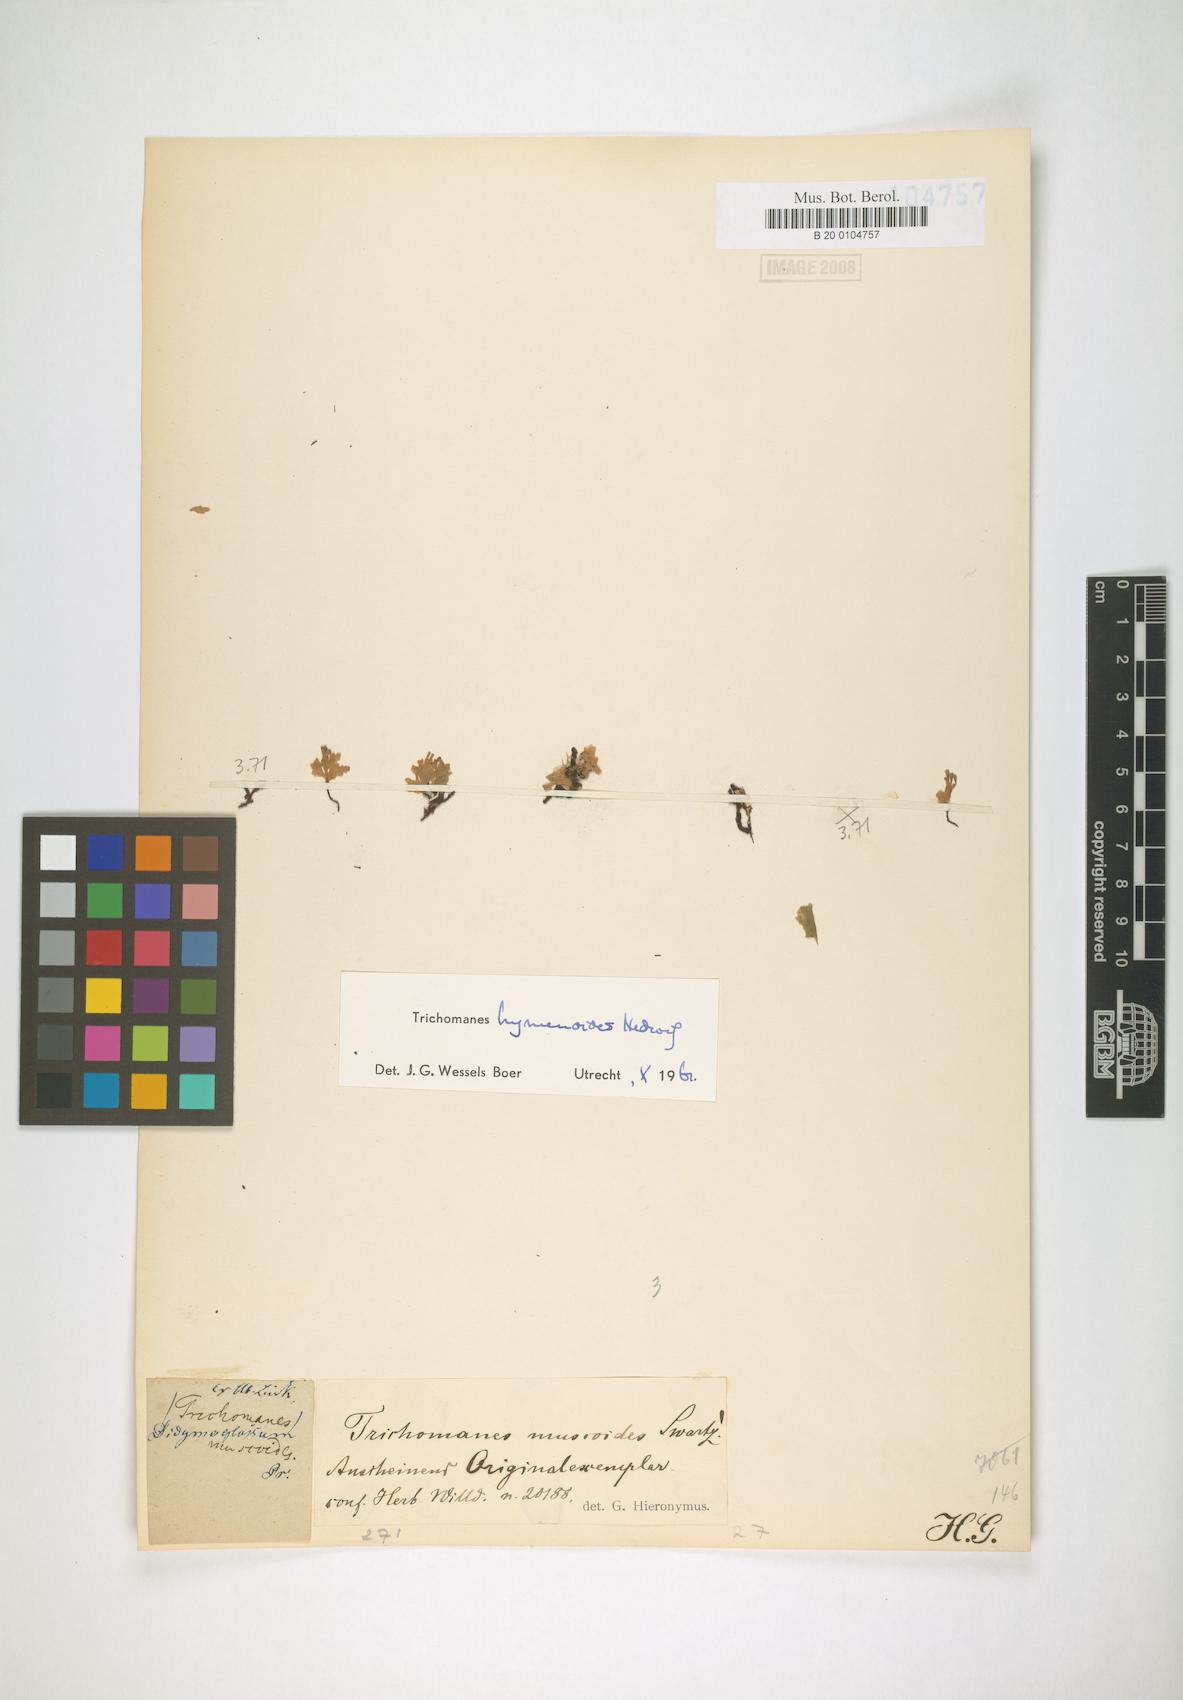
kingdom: Plantae
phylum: Tracheophyta
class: Polypodiopsida
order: Hymenophyllales
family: Hymenophyllaceae
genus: Didymoglossum
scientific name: Didymoglossum hymenoides
